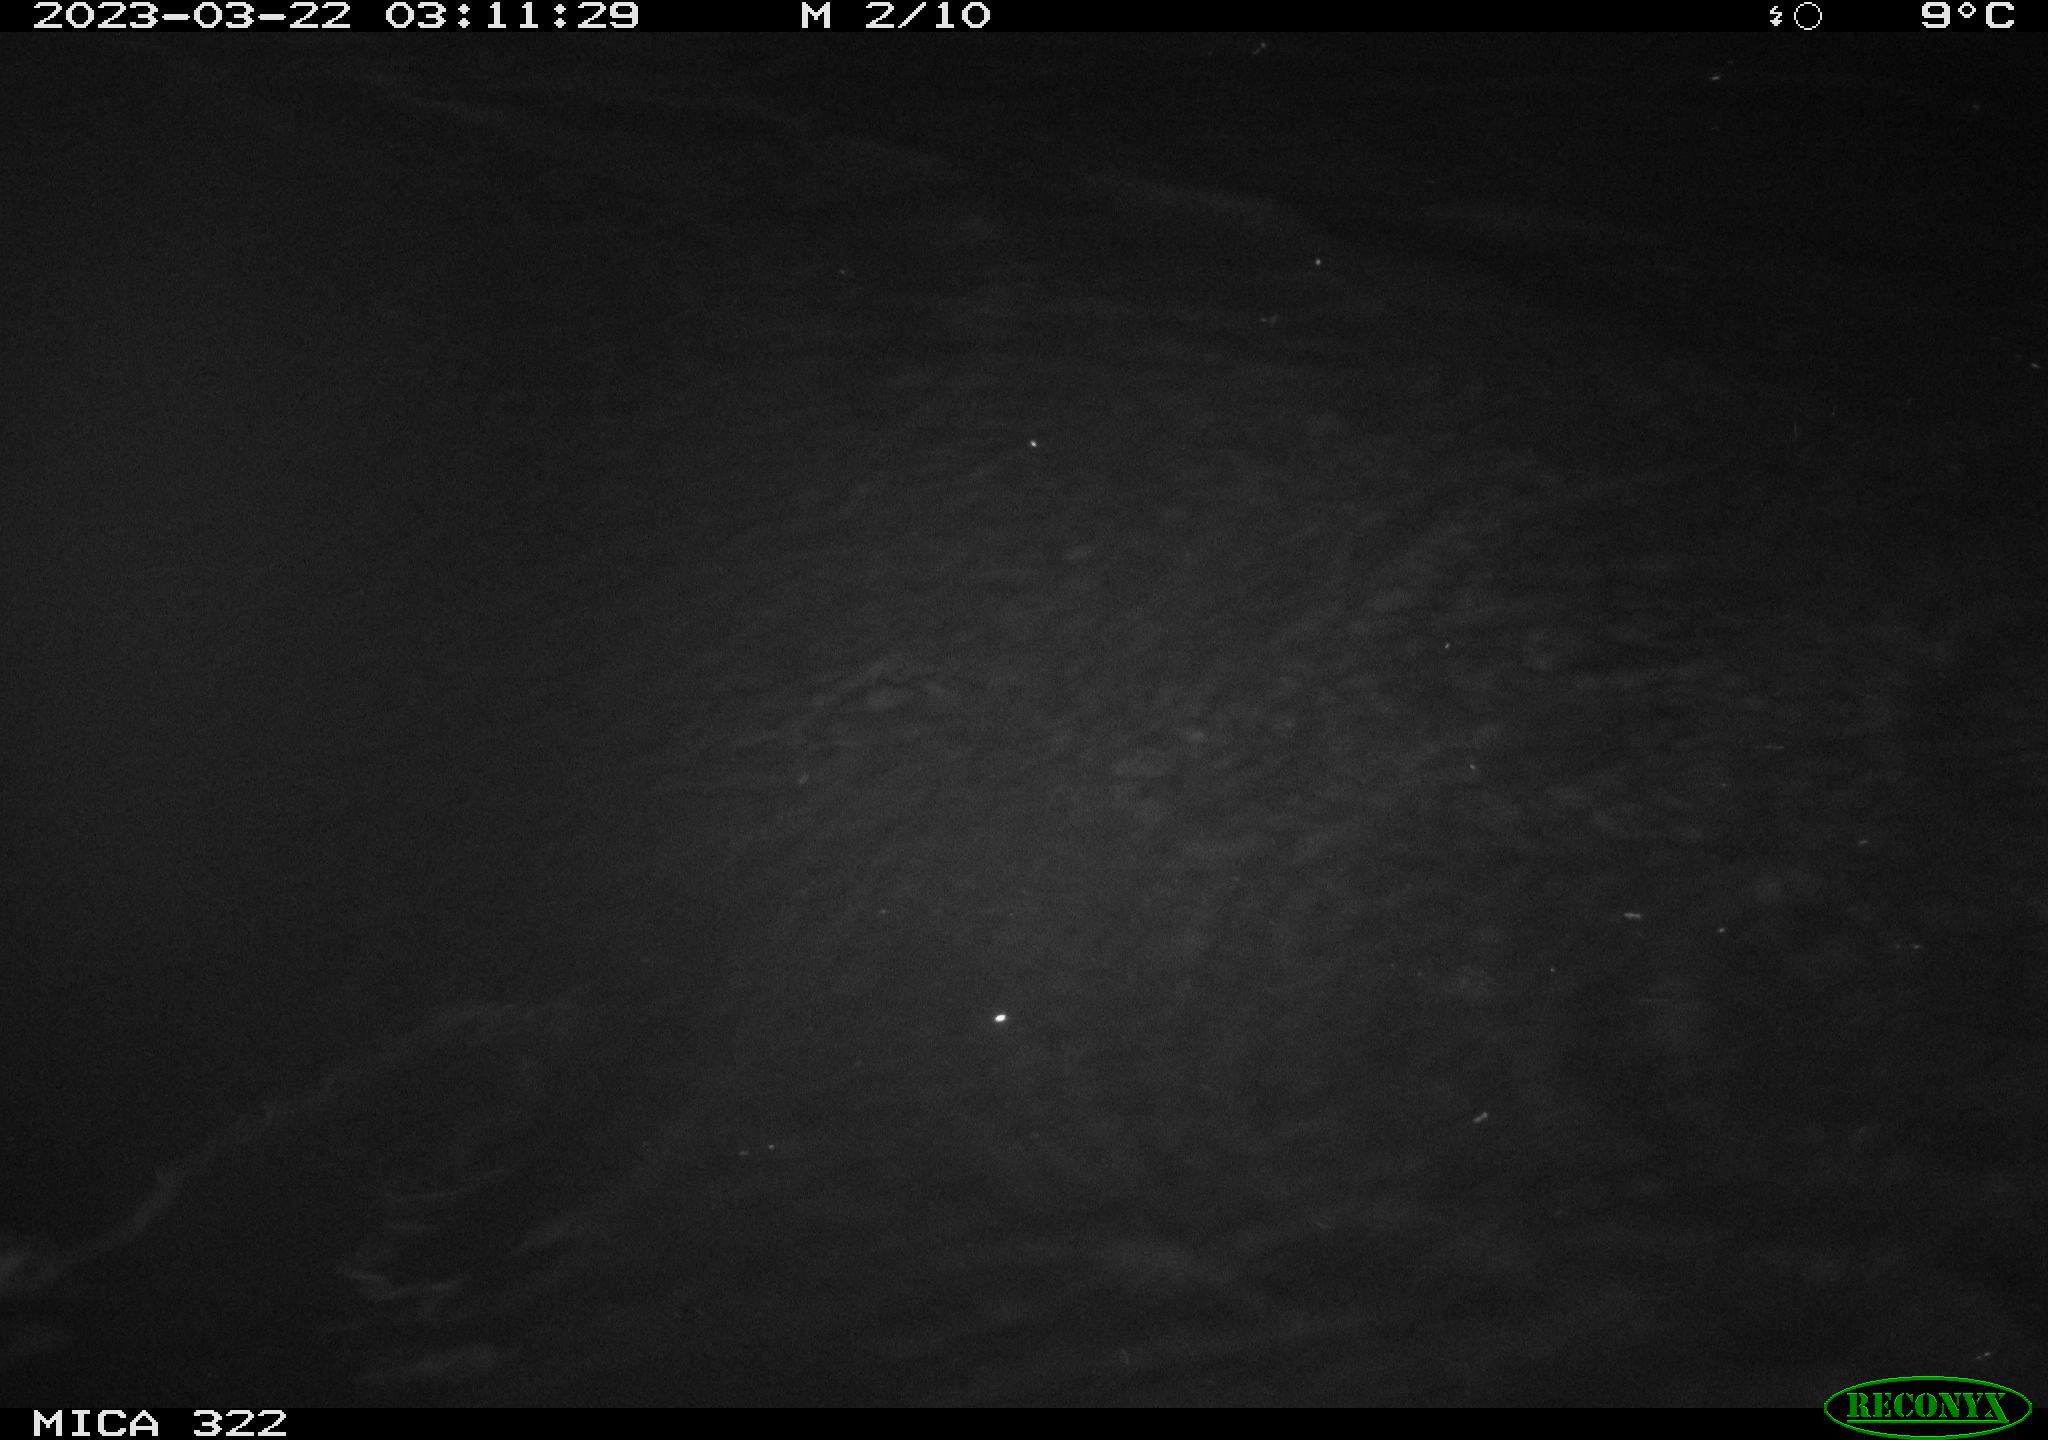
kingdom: Animalia
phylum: Chordata
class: Aves
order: Anseriformes
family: Anatidae
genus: Anas
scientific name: Anas
